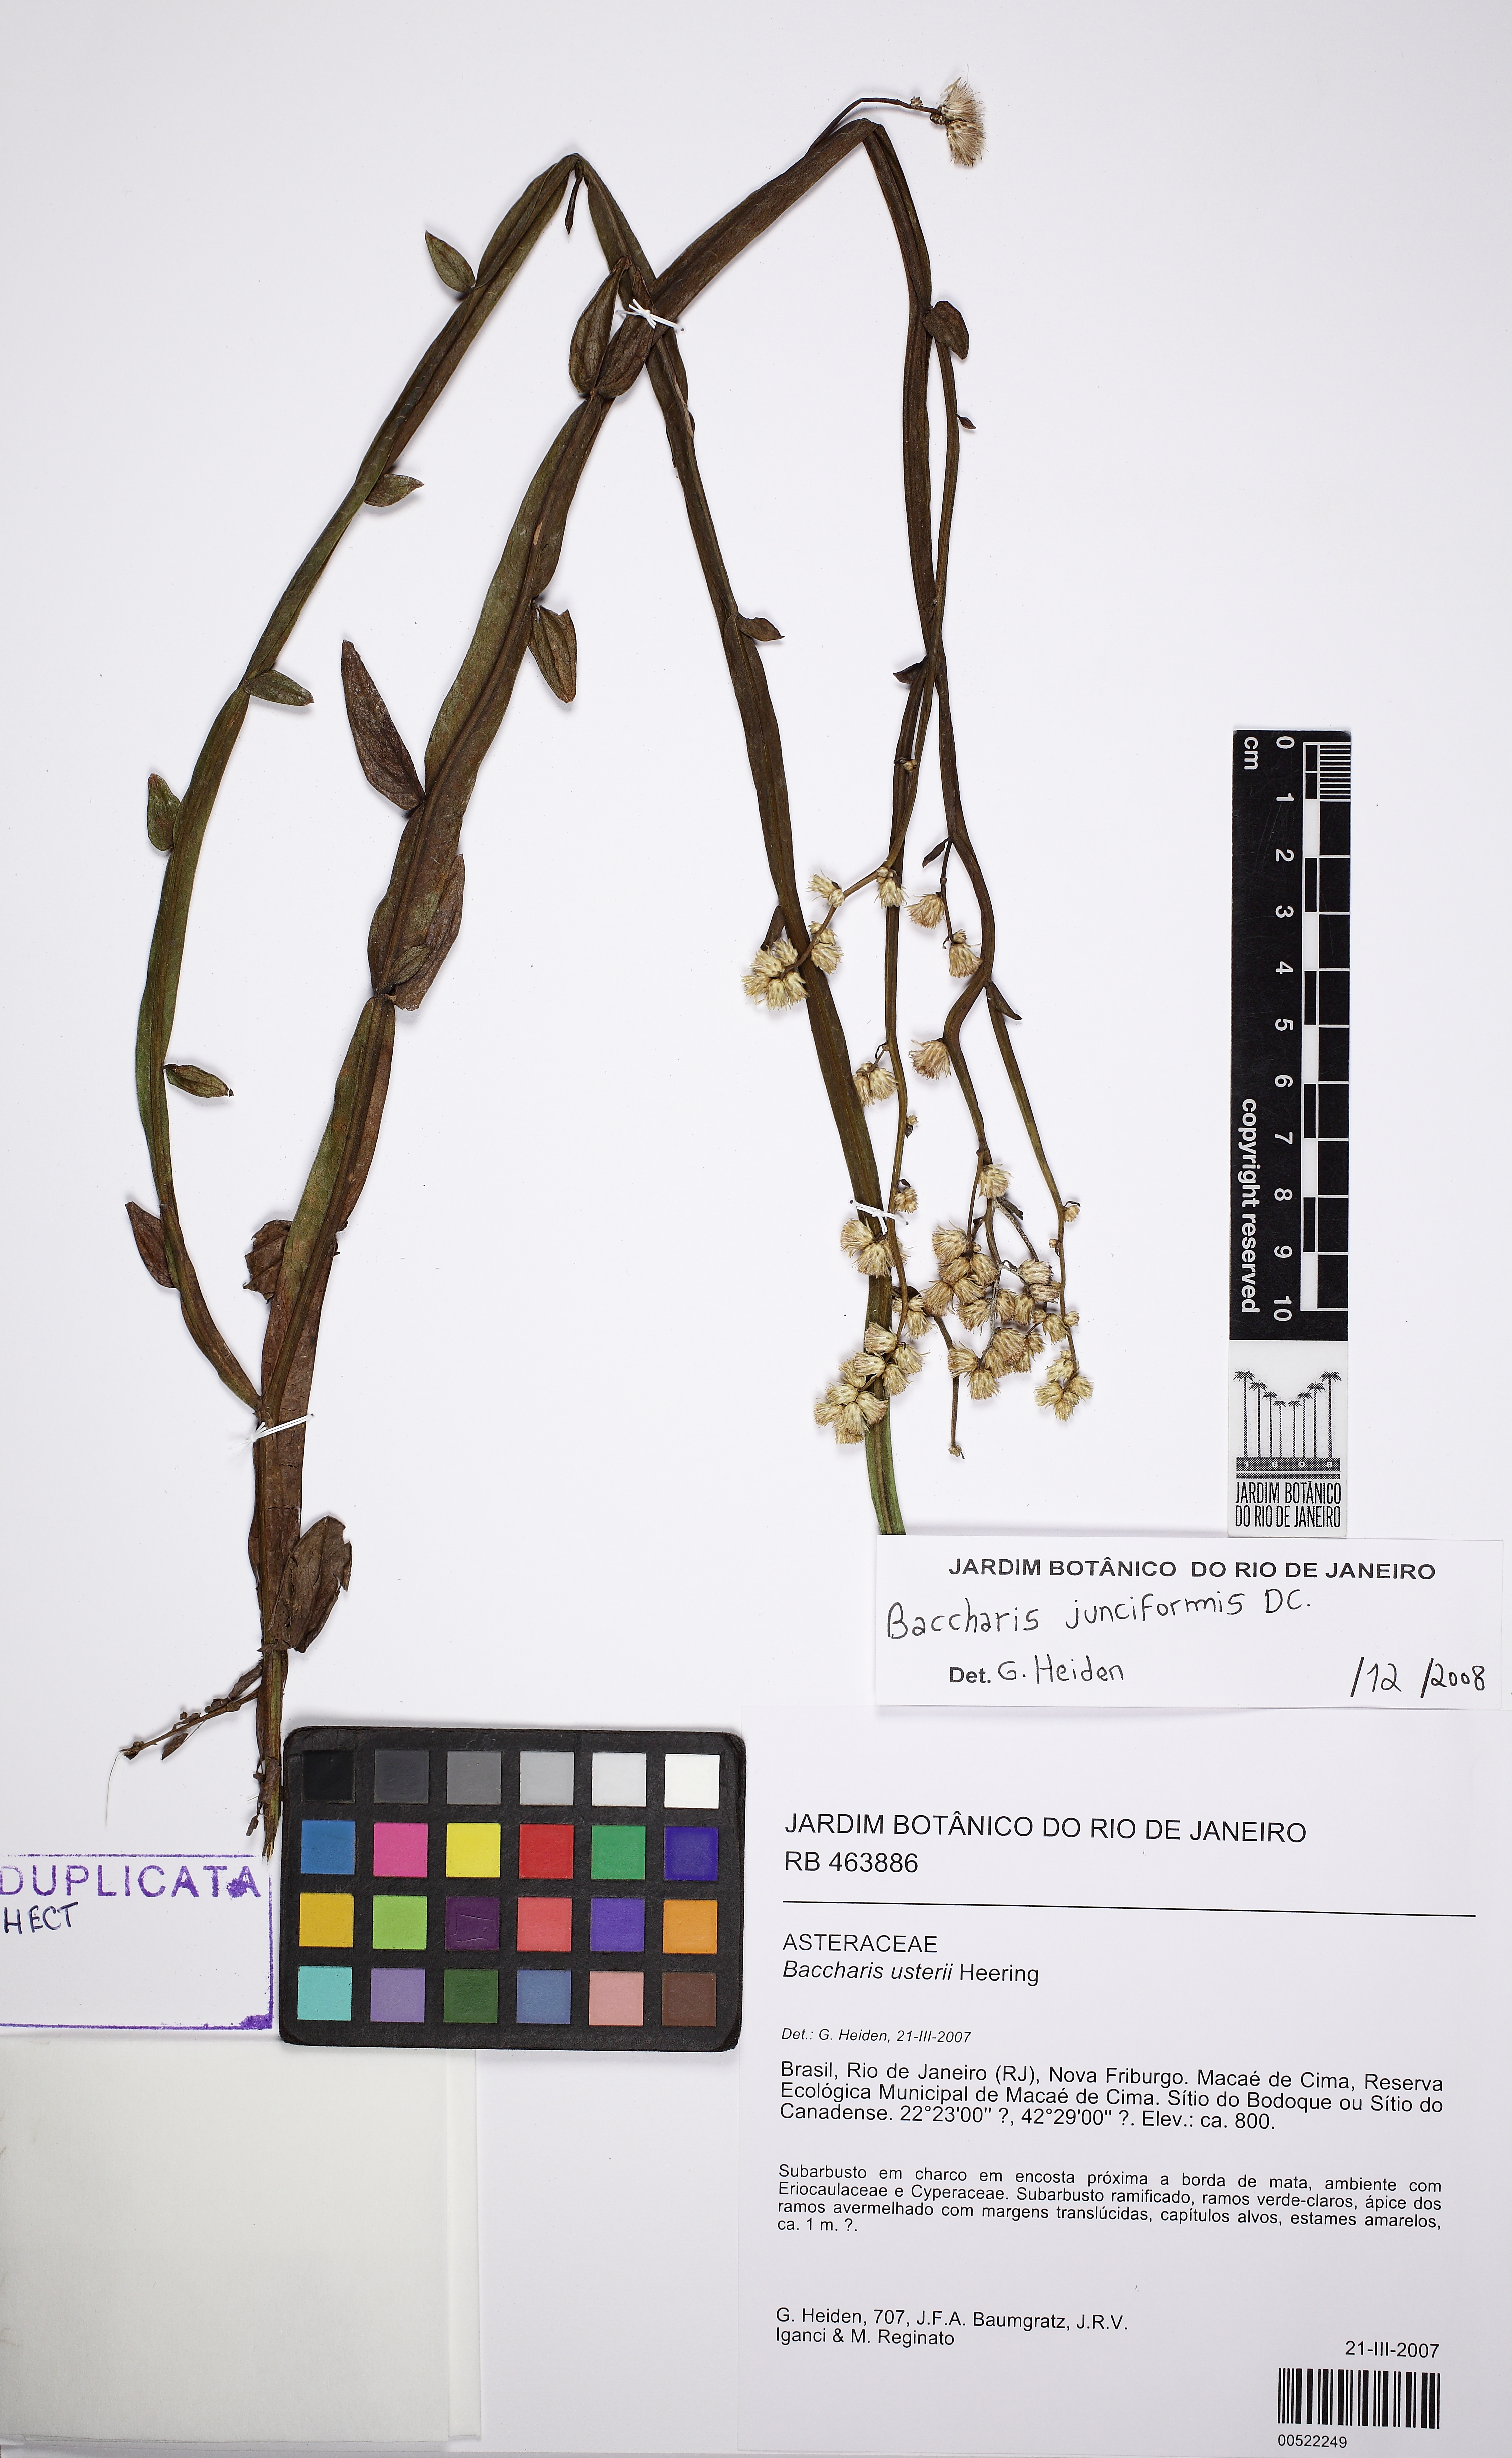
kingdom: Plantae
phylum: Tracheophyta
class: Magnoliopsida
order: Asterales
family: Asteraceae
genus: Baccharis
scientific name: Baccharis junciformis
